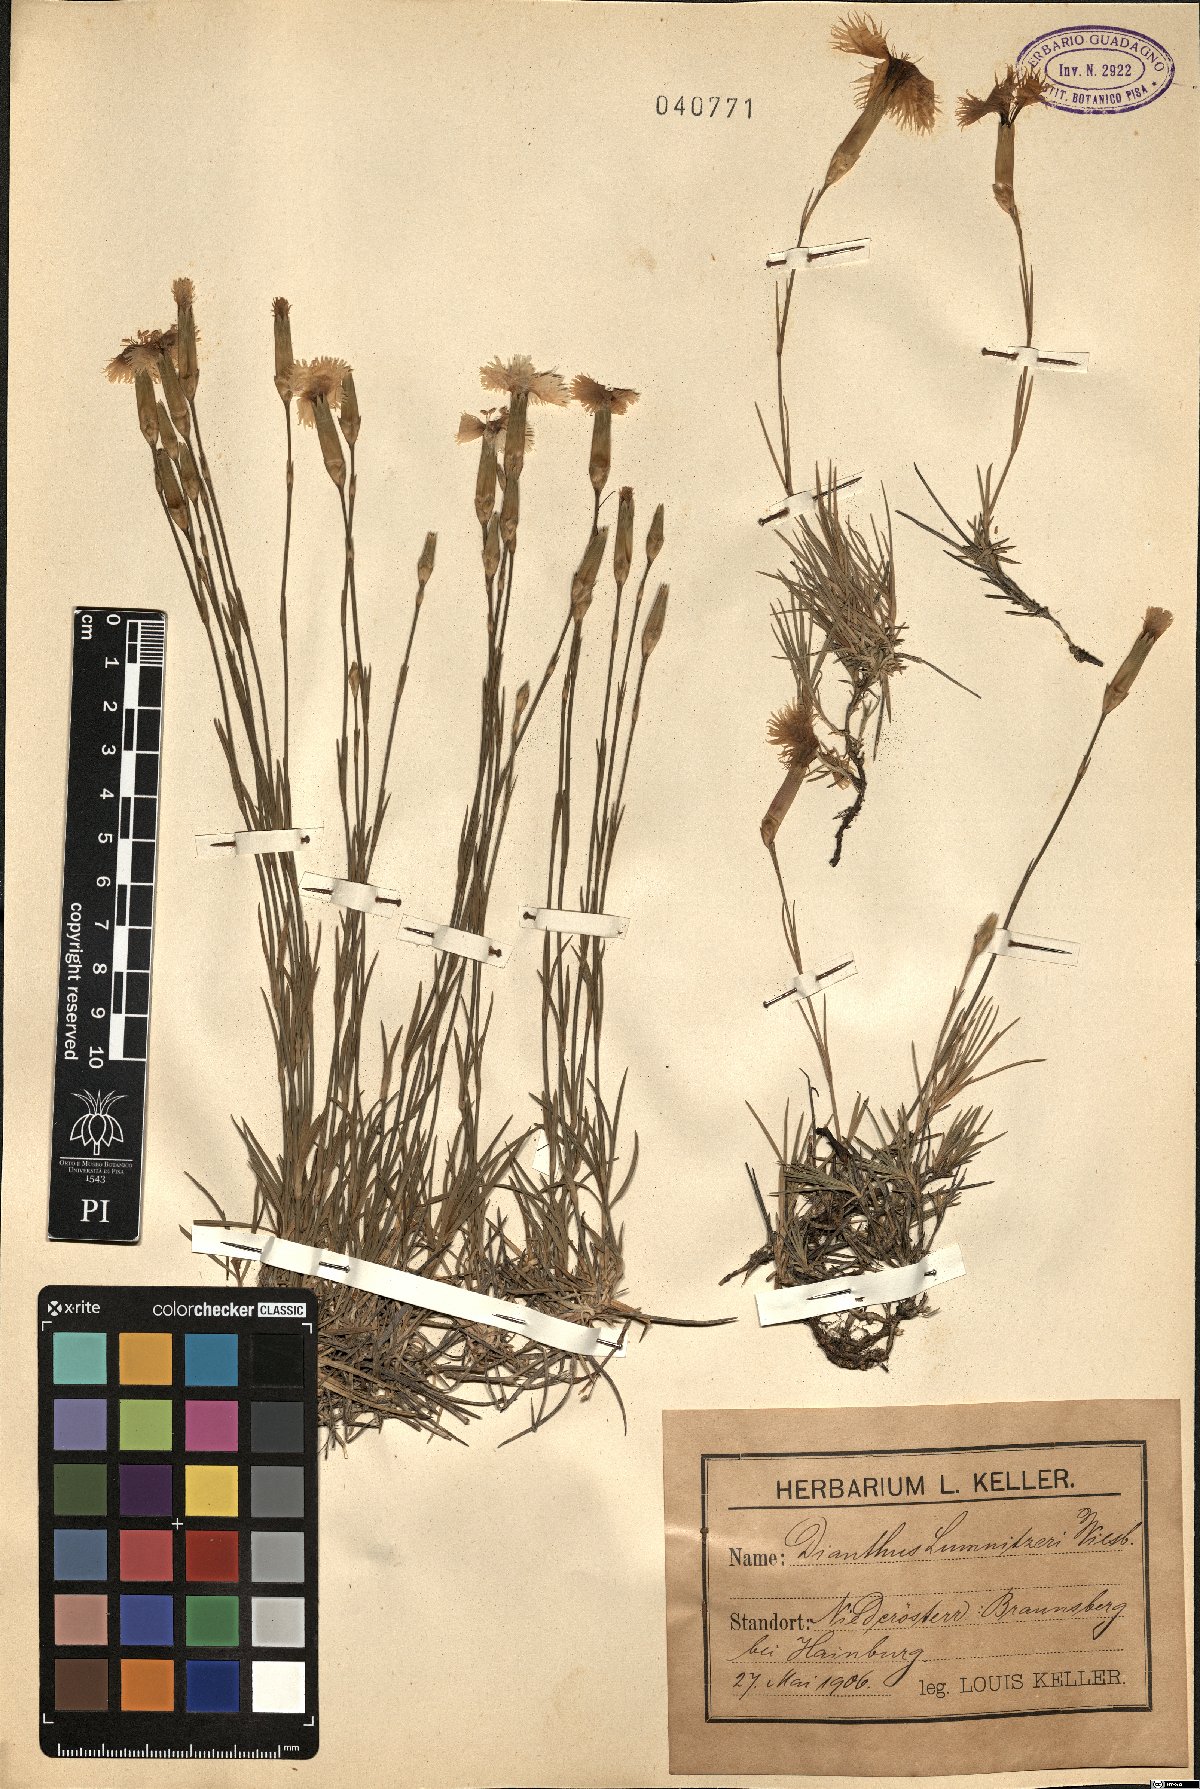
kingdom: Plantae
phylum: Tracheophyta
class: Magnoliopsida
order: Caryophyllales
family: Caryophyllaceae
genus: Dianthus
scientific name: Dianthus praecox
